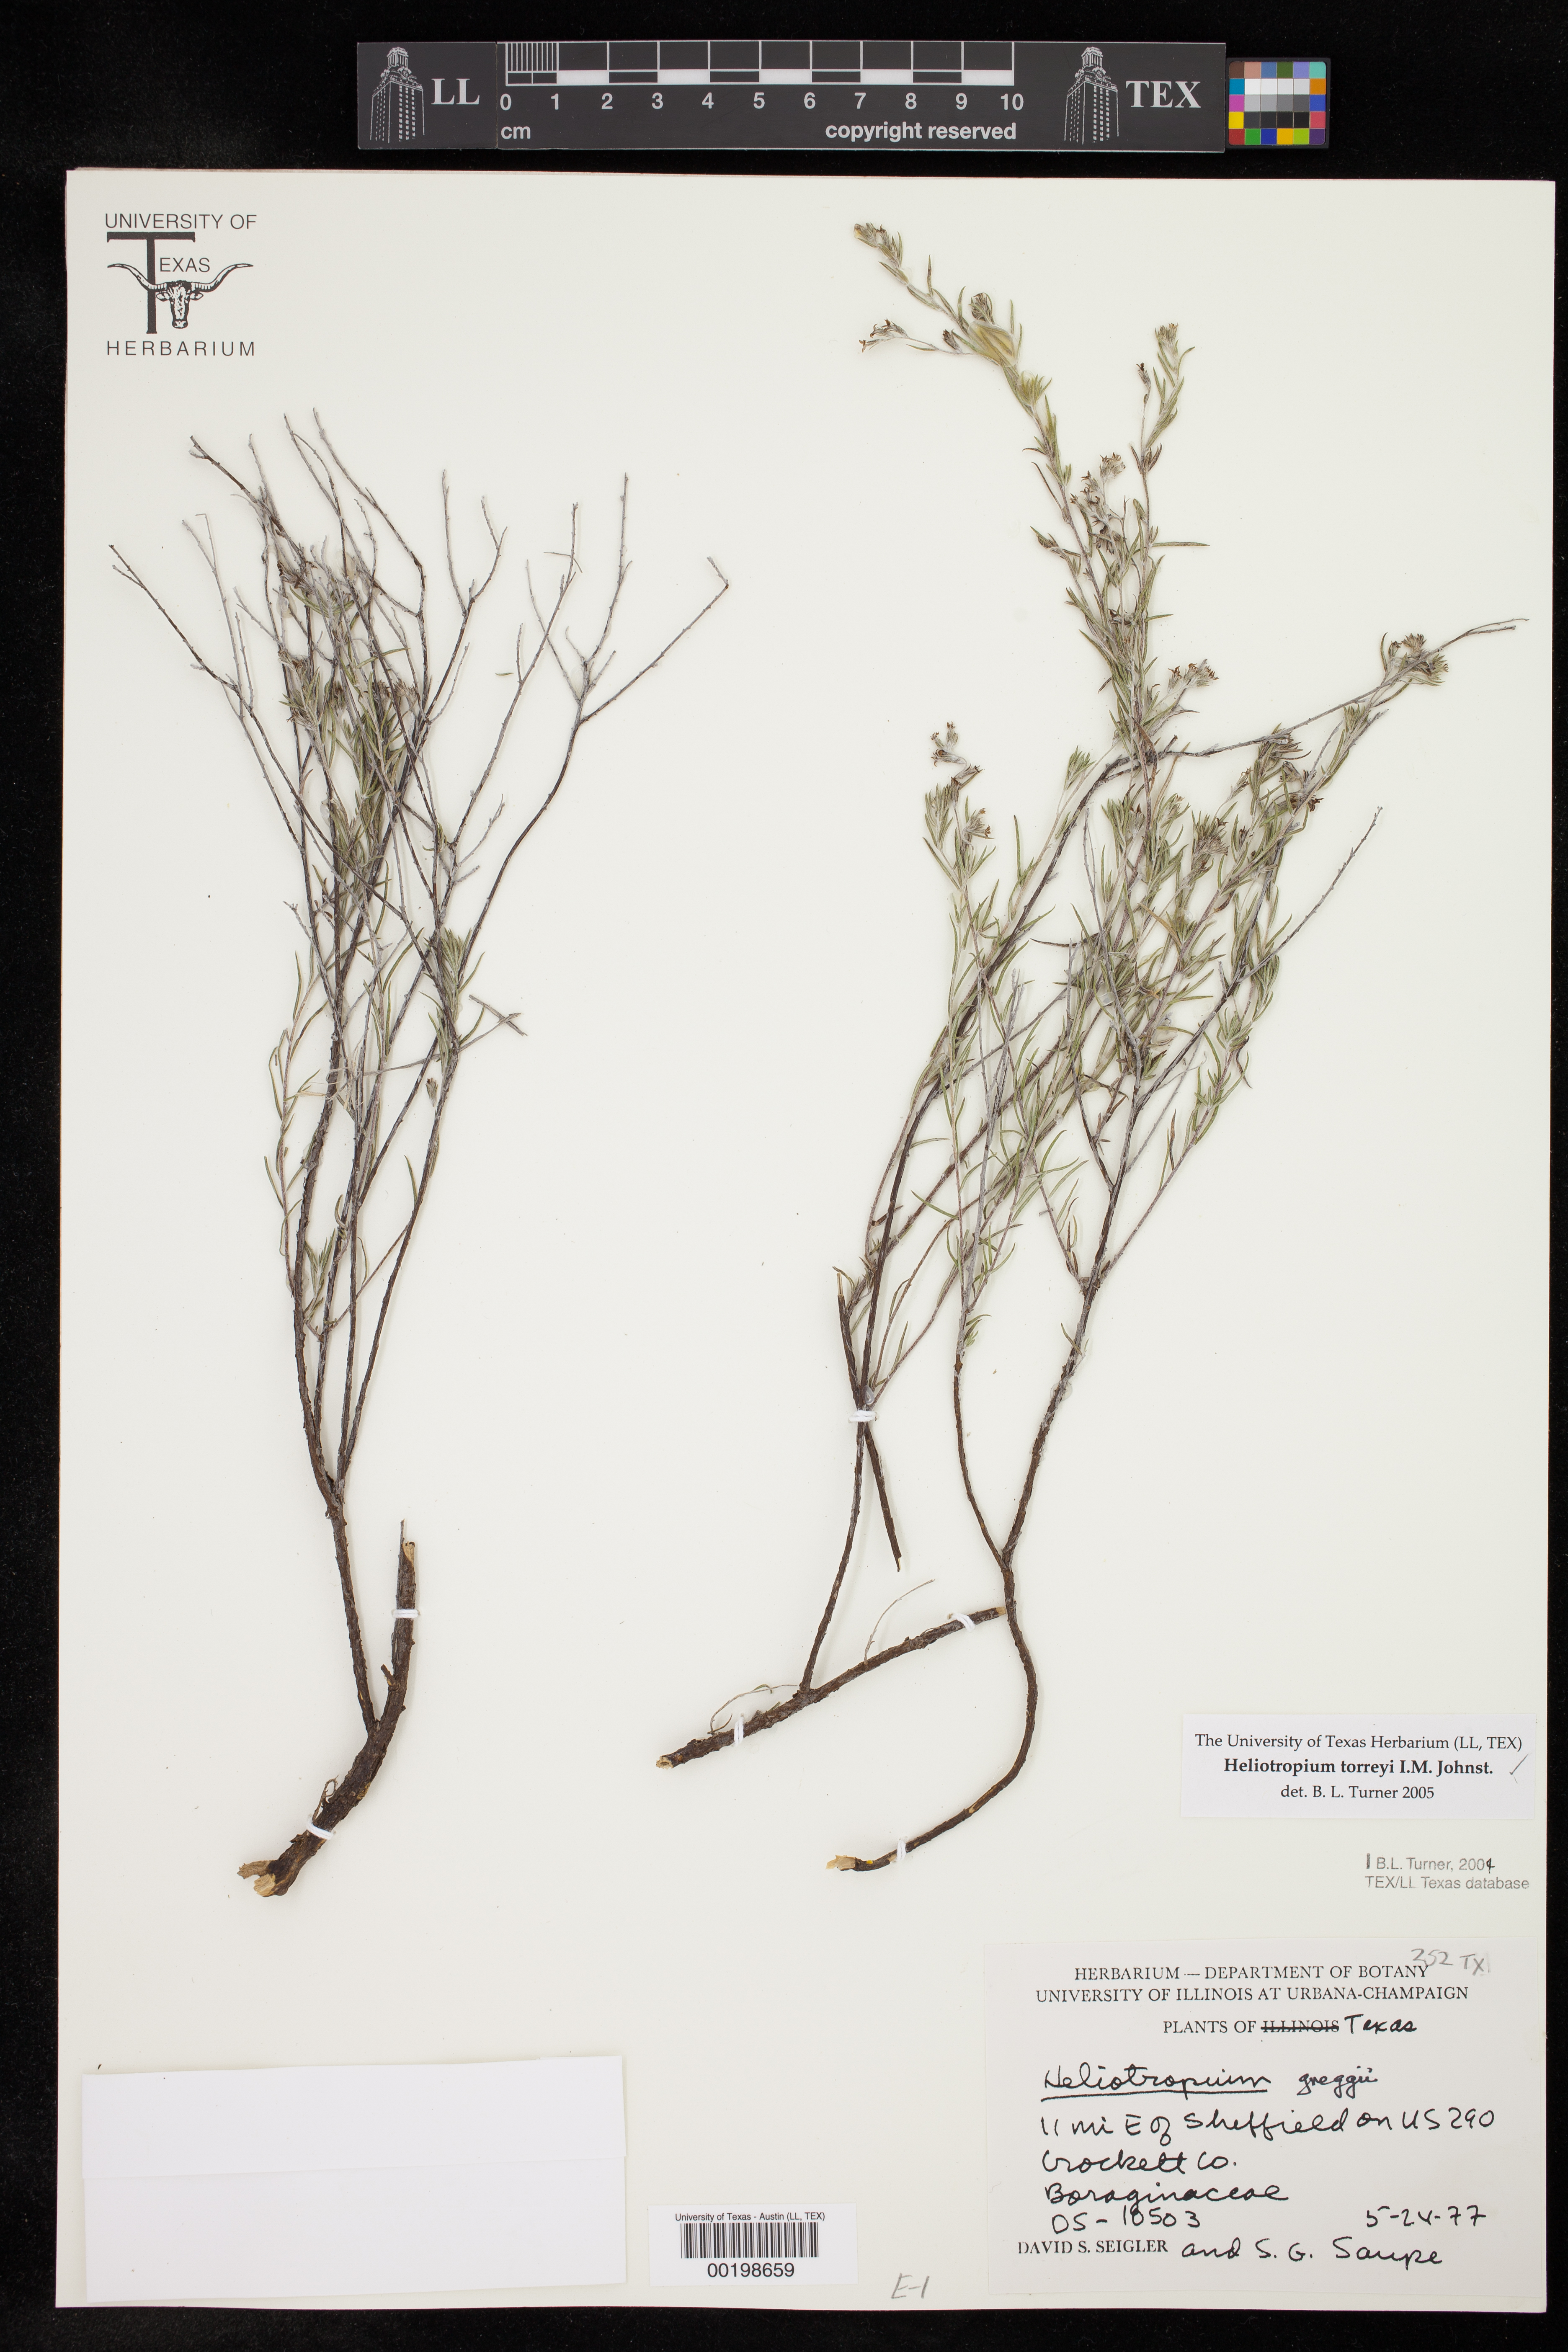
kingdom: Plantae
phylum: Tracheophyta
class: Magnoliopsida
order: Boraginales
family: Heliotropiaceae
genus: Euploca
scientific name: Euploca torreyi
